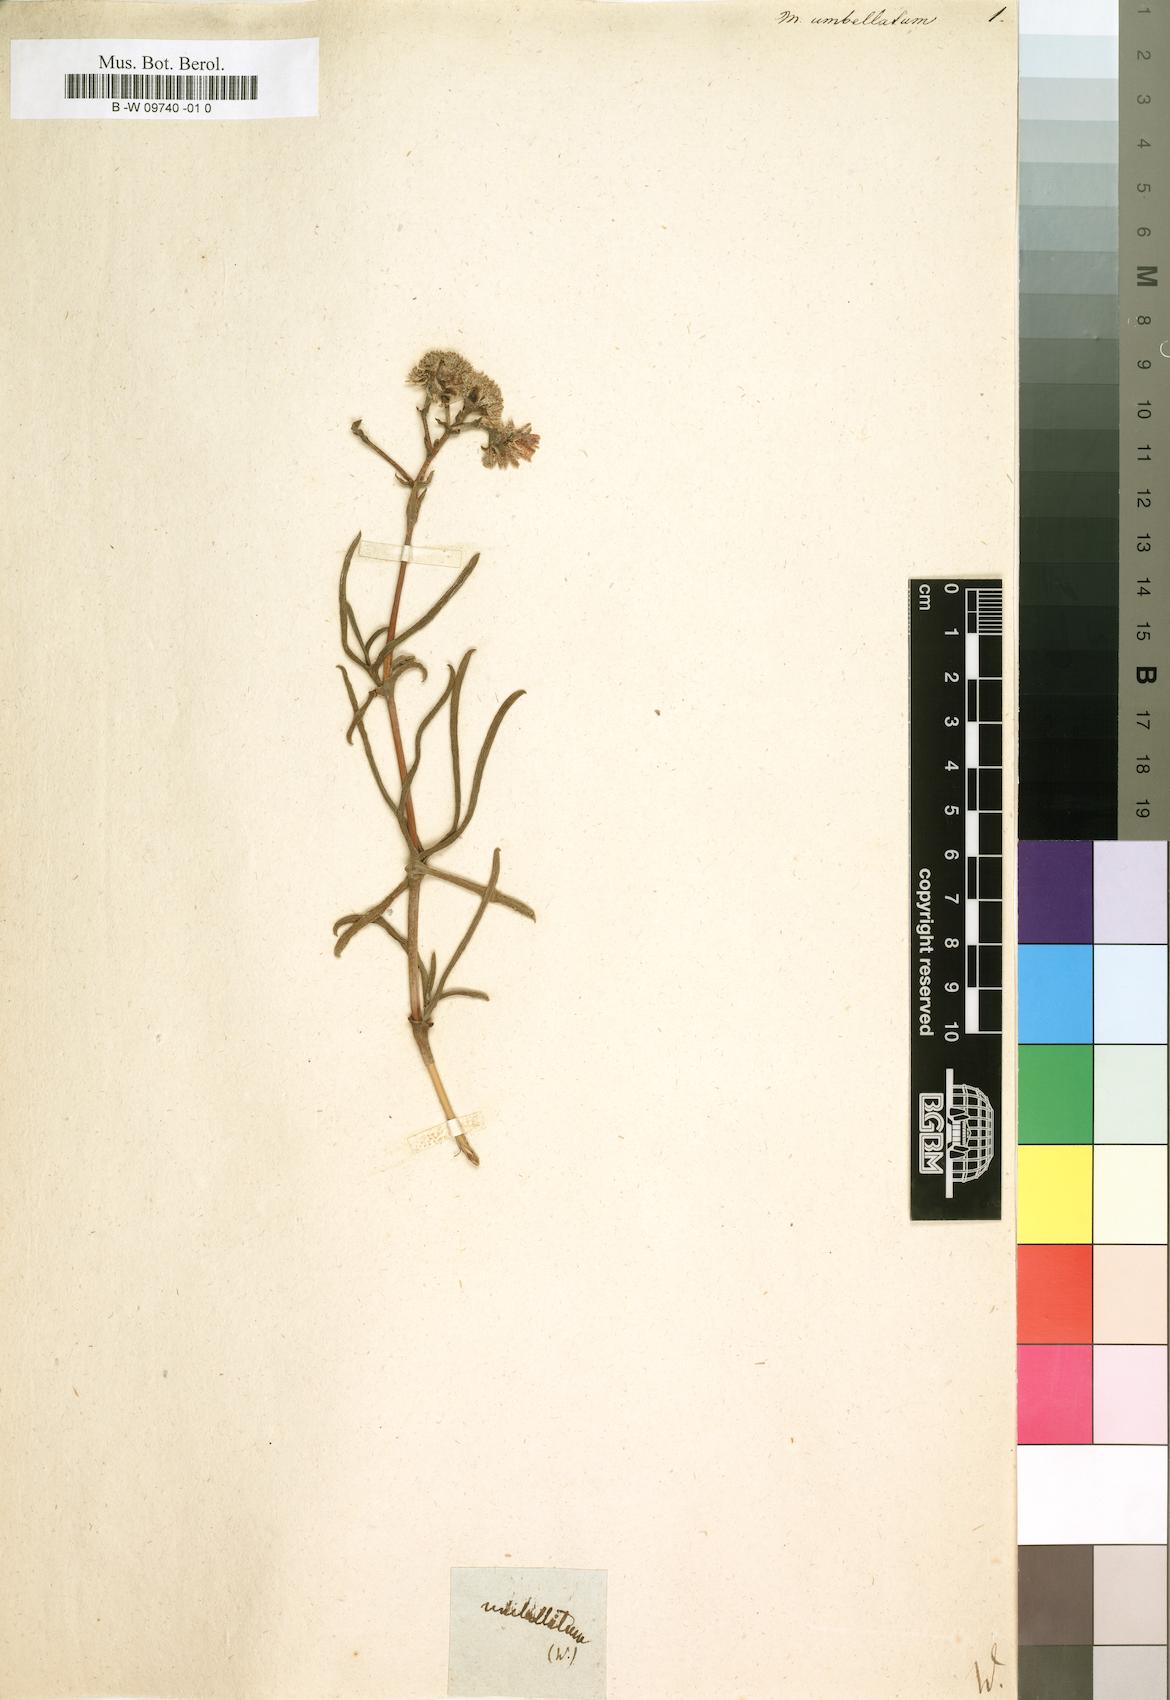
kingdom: Plantae
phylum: Tracheophyta
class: Magnoliopsida
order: Caryophyllales
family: Aizoaceae
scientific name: Aizoaceae
